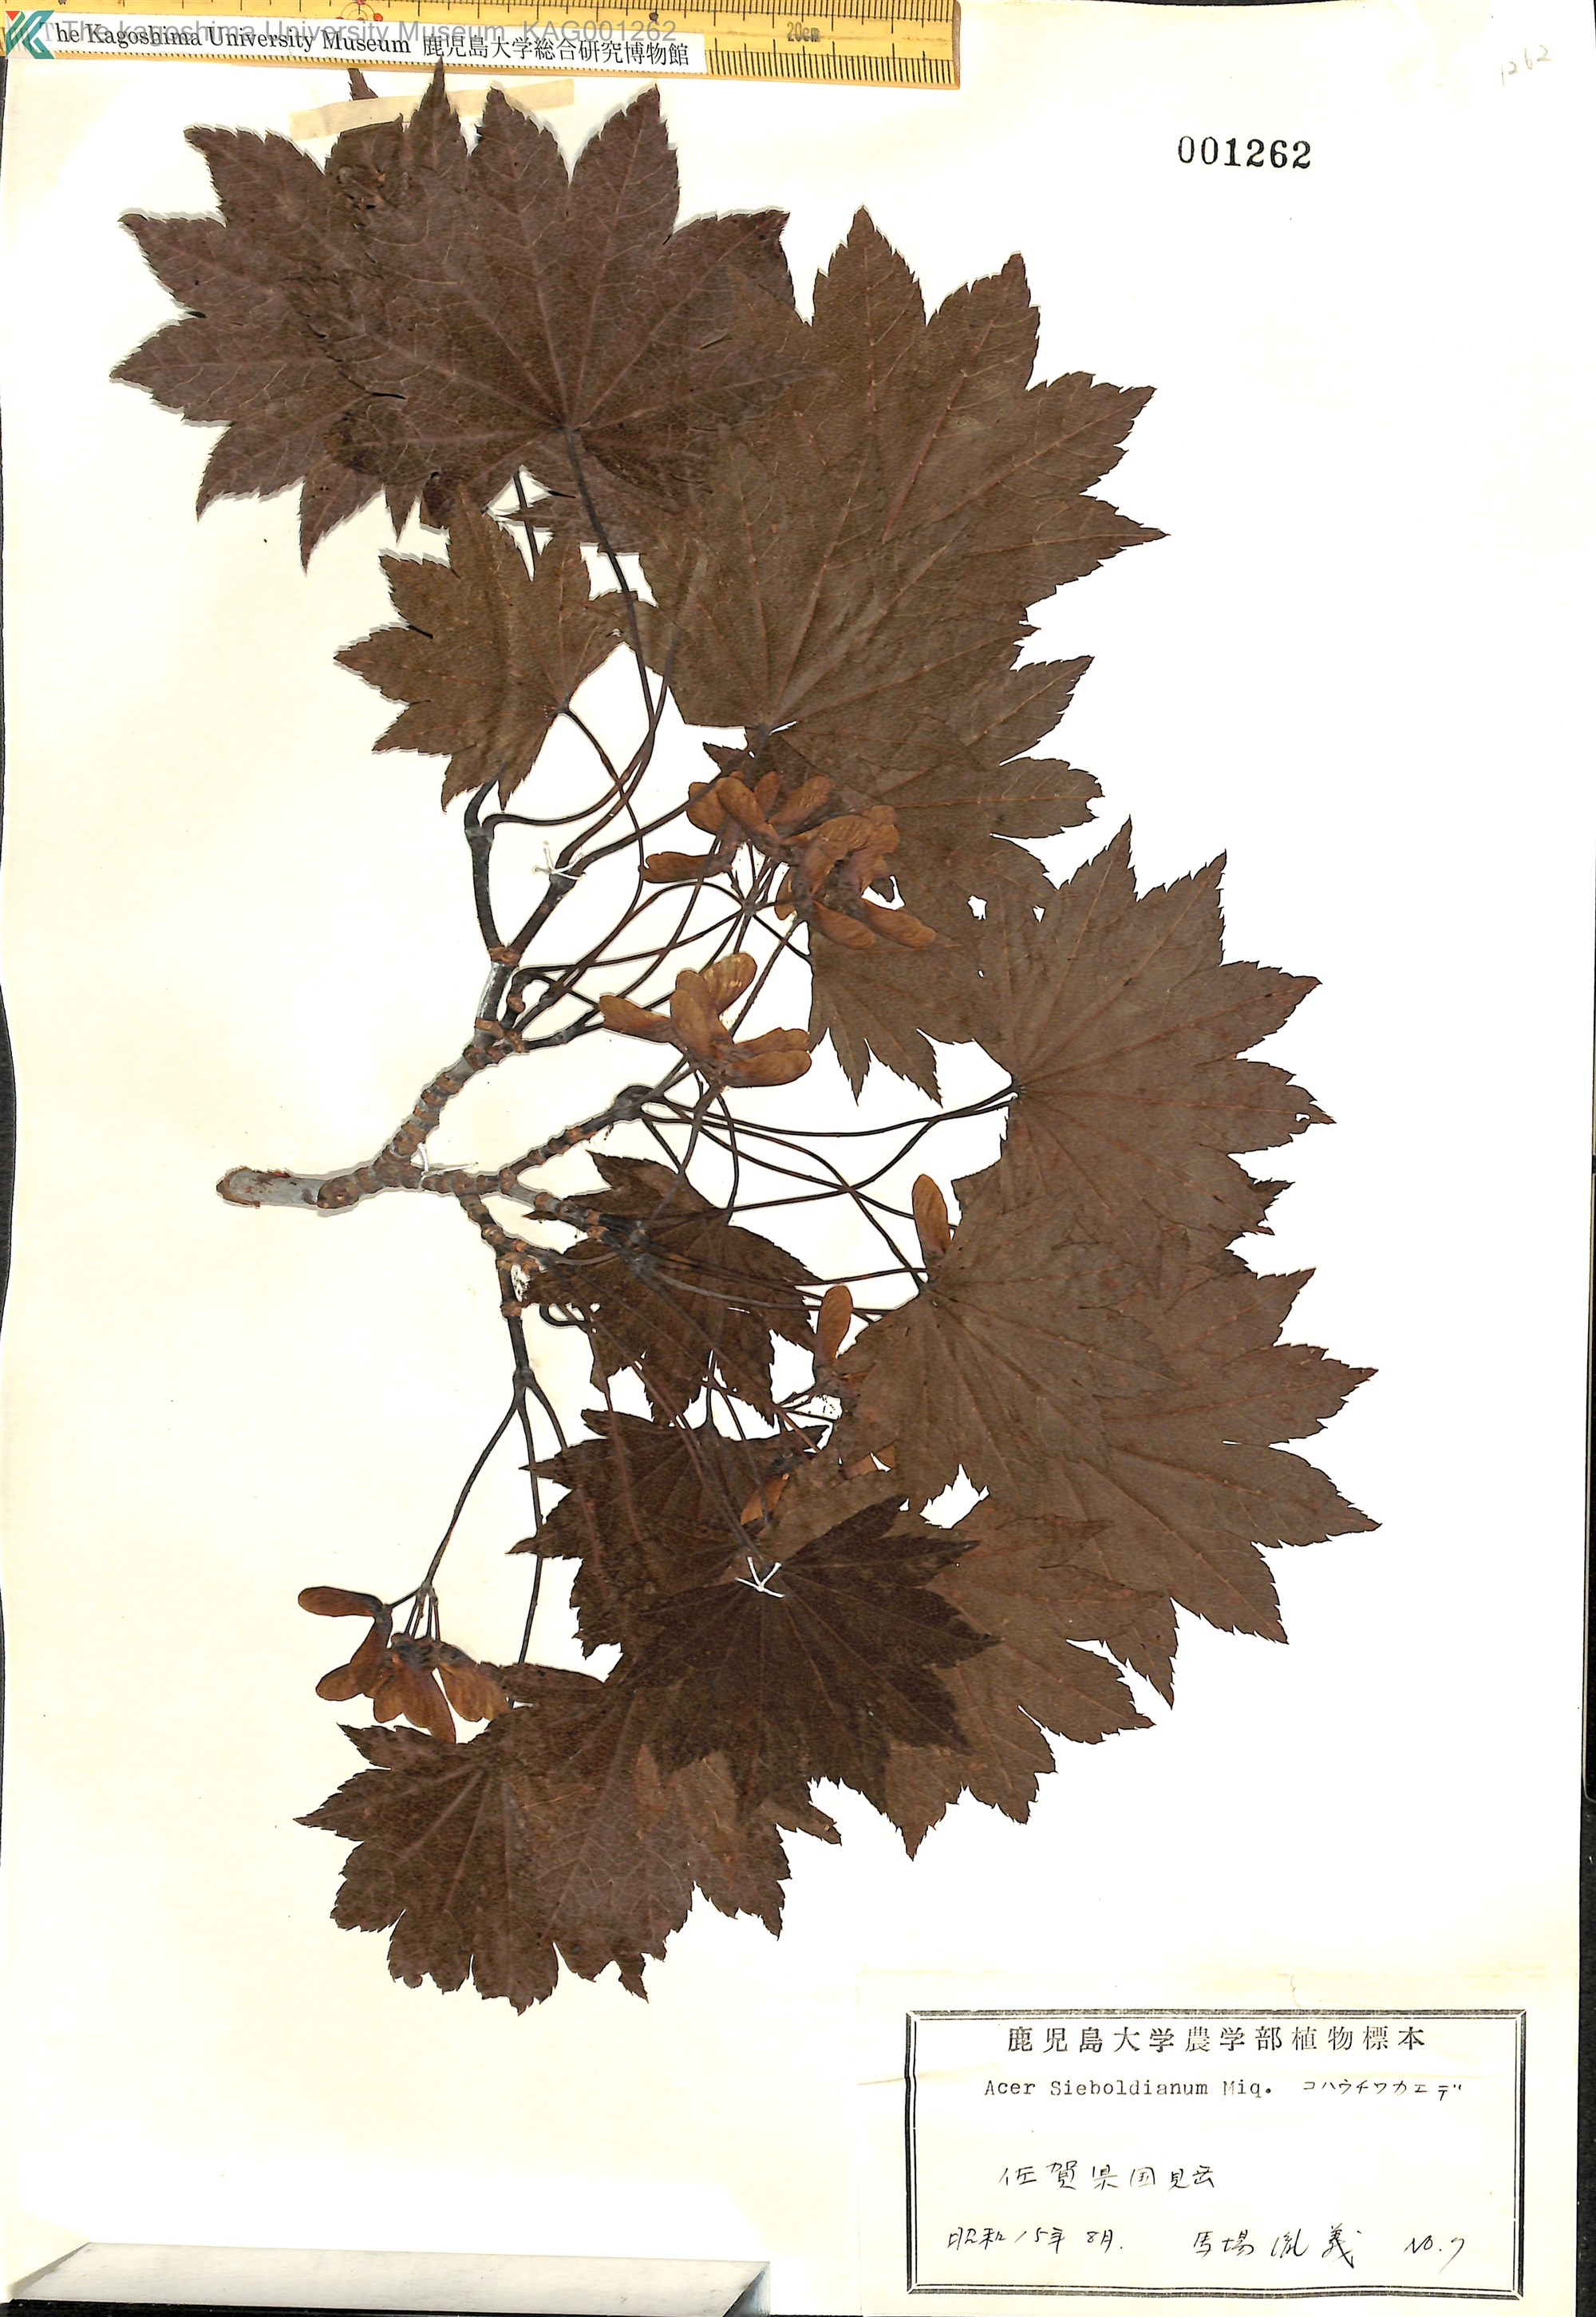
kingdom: Plantae
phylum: Tracheophyta
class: Magnoliopsida
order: Sapindales
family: Sapindaceae
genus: Acer
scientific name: Acer sieboldianum
